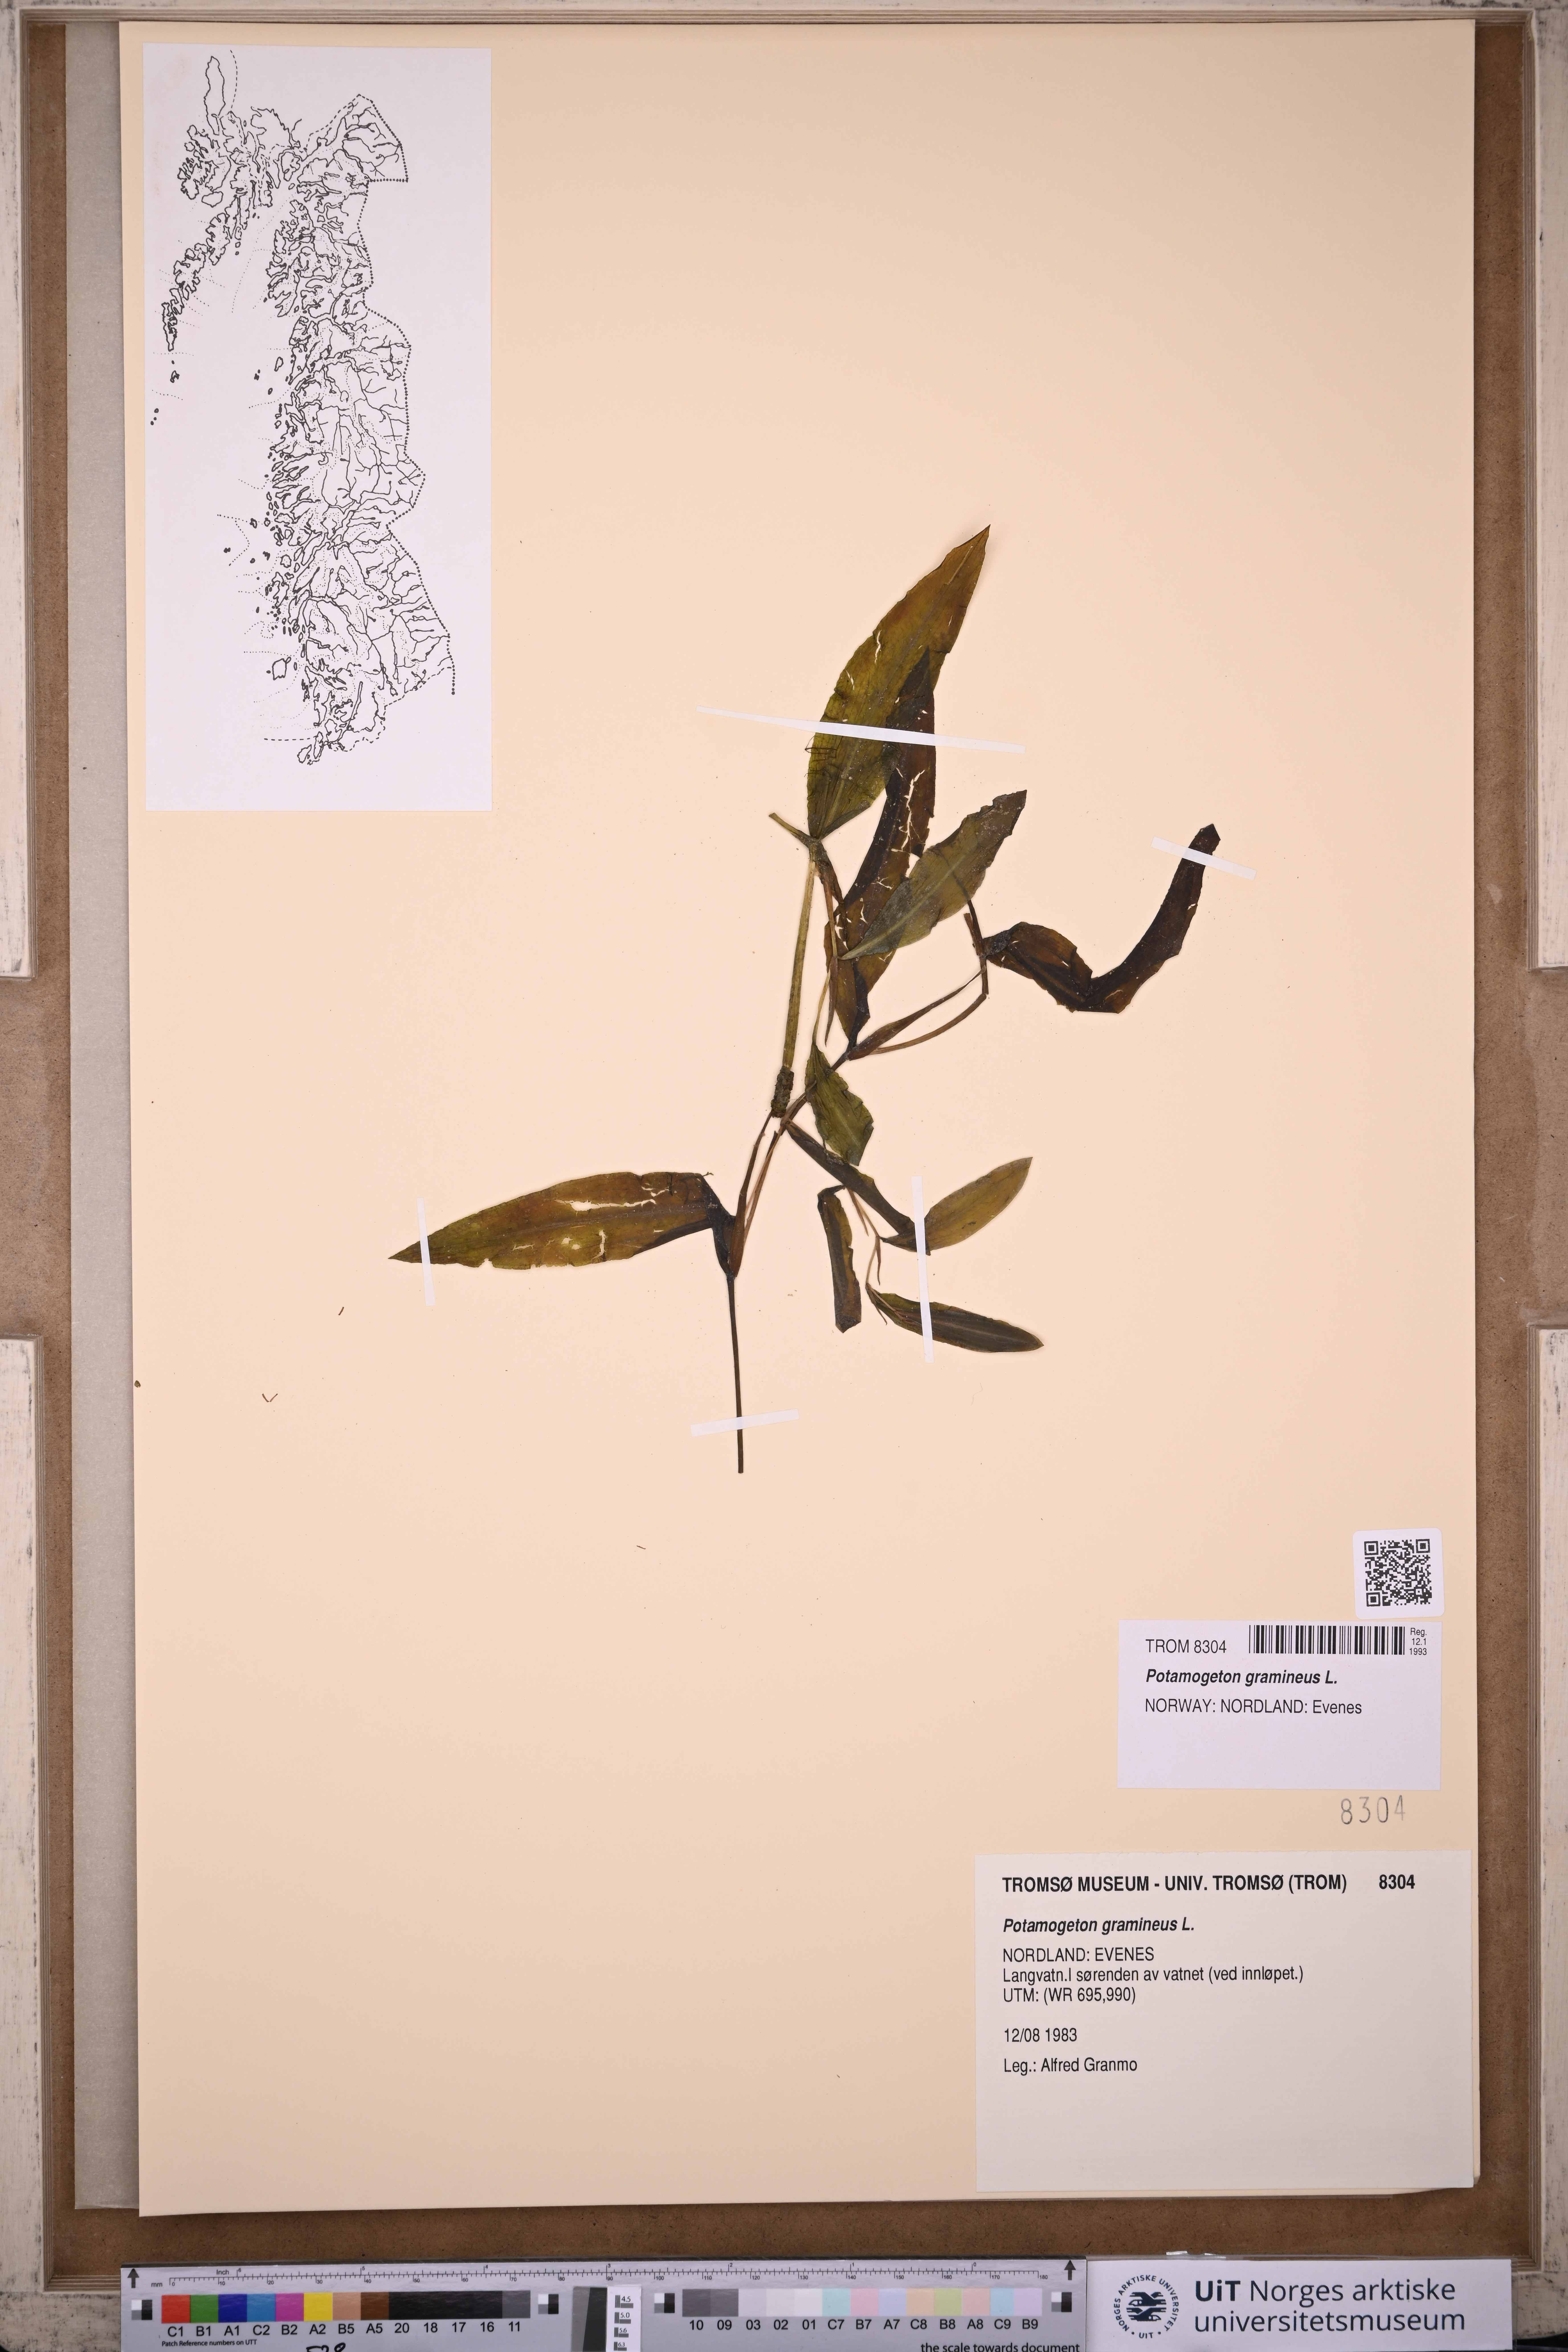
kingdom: Plantae
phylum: Tracheophyta
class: Liliopsida
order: Alismatales
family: Potamogetonaceae
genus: Potamogeton
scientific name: Potamogeton gramineus
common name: Various-leaved pondweed
